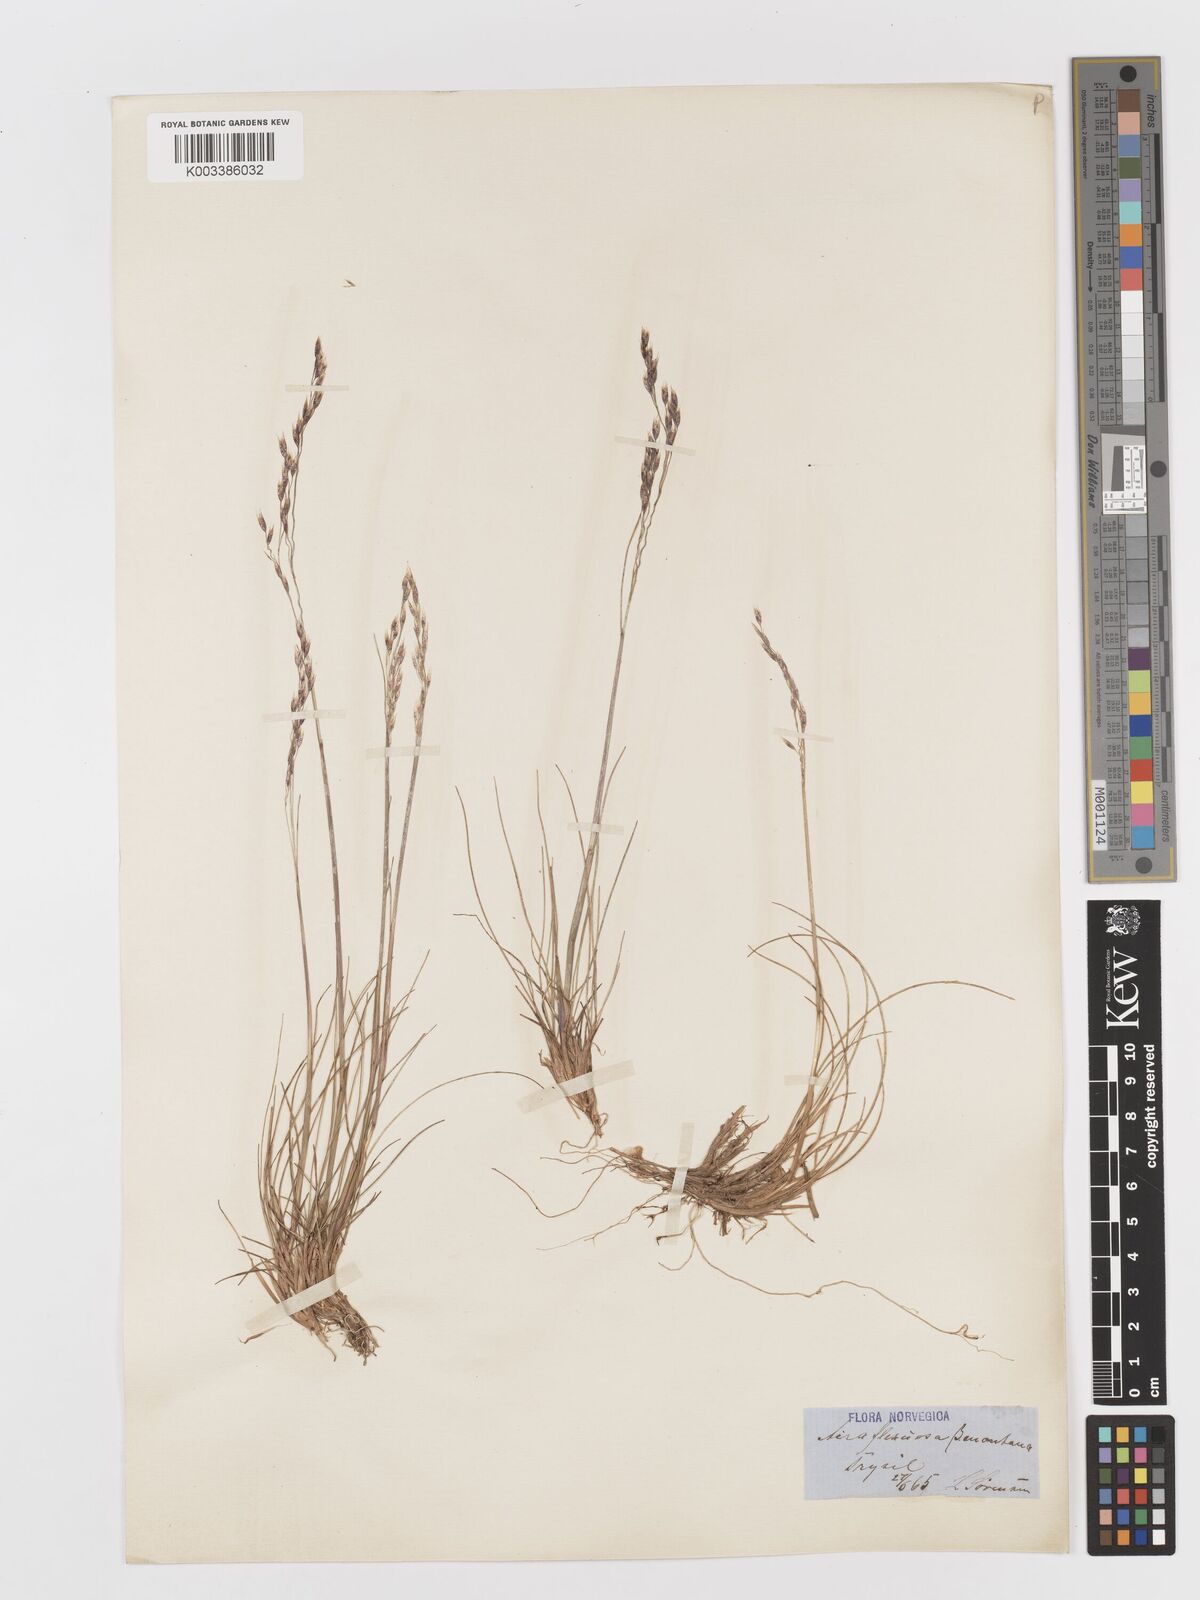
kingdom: Plantae
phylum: Tracheophyta
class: Liliopsida
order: Poales
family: Poaceae
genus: Avenella
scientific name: Avenella flexuosa
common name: Wavy hairgrass
